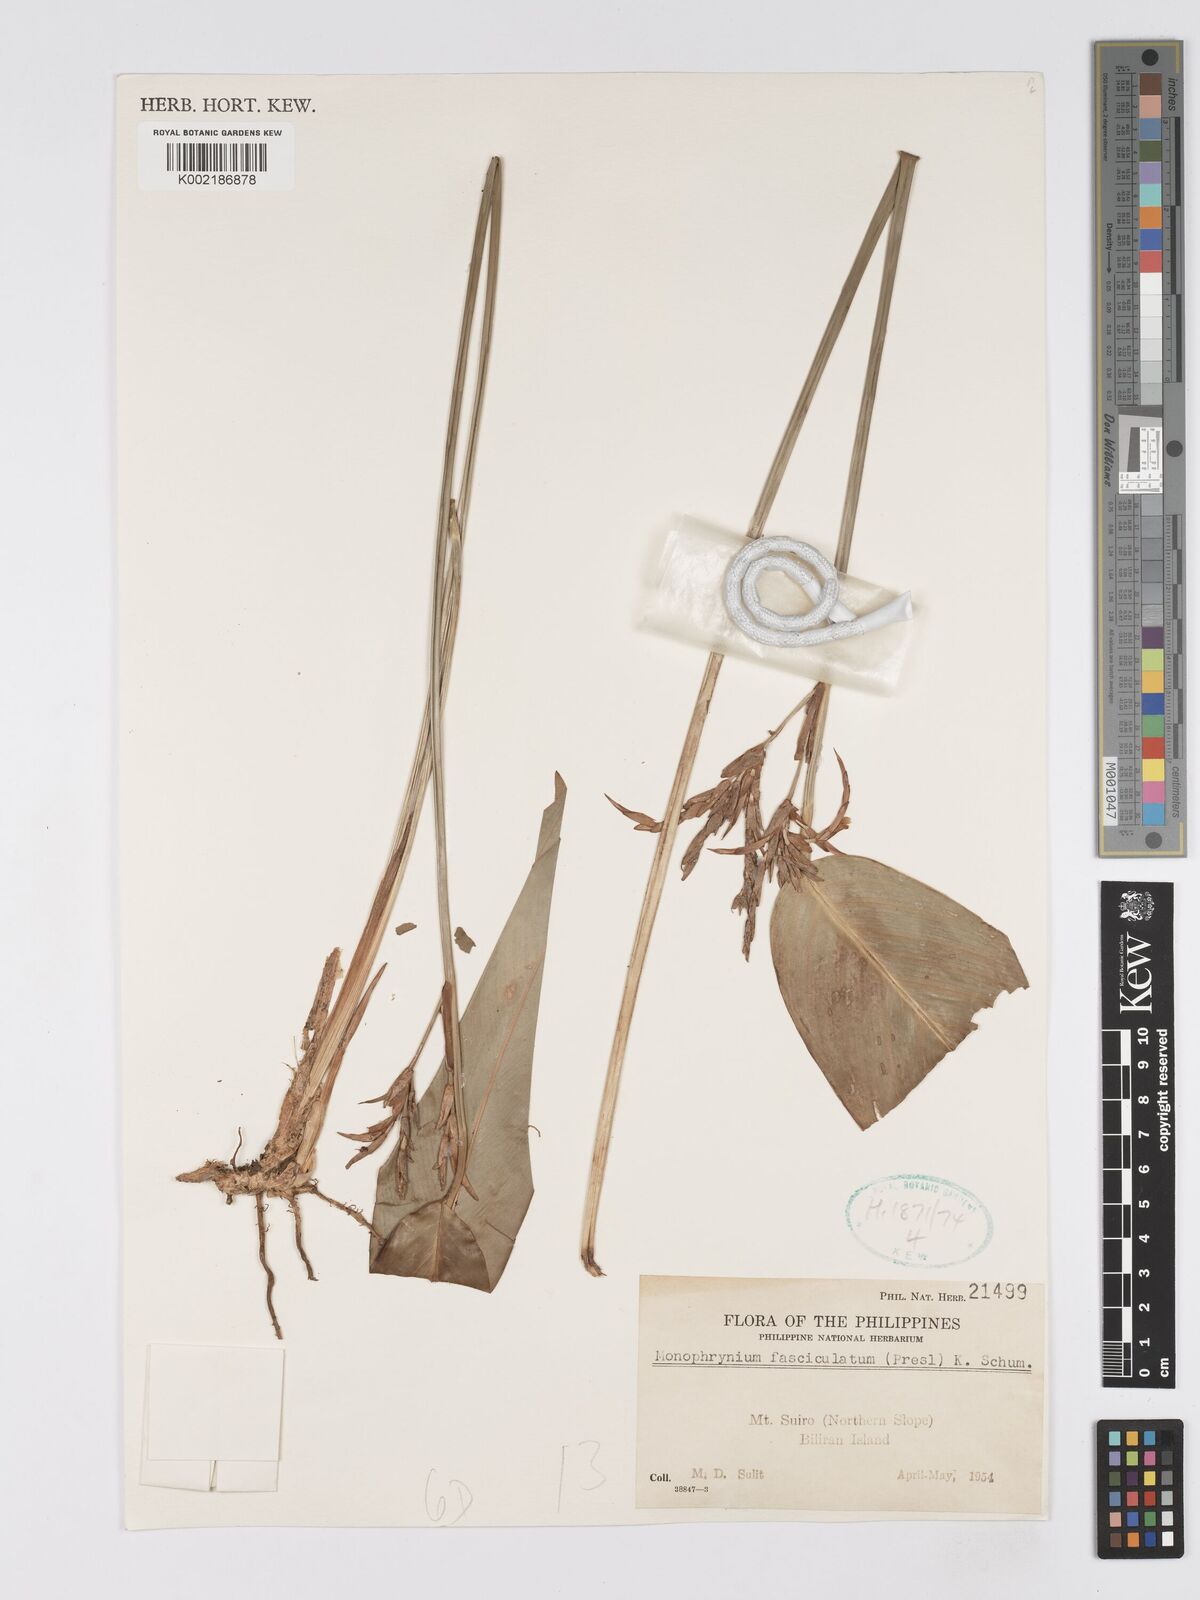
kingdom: Plantae
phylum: Tracheophyta
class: Liliopsida
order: Zingiberales
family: Marantaceae
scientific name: Marantaceae
